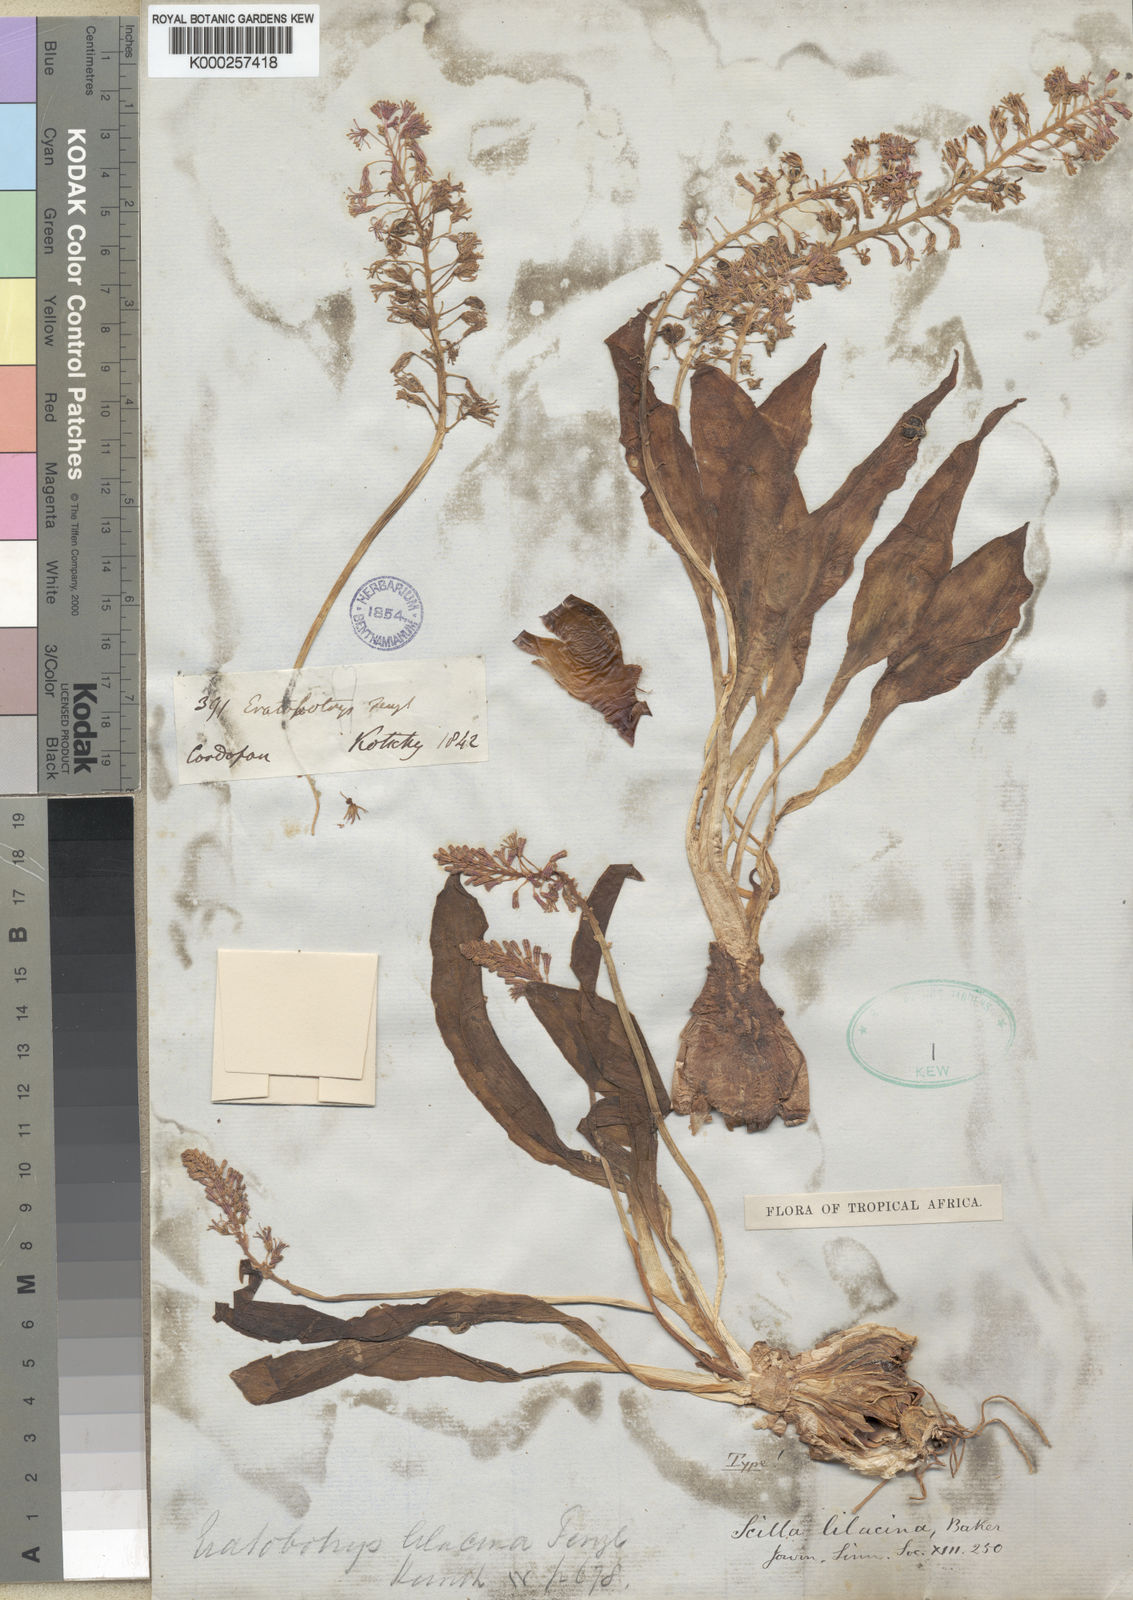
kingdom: Plantae
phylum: Tracheophyta
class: Liliopsida
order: Asparagales
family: Asparagaceae
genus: Ledebouria
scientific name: Ledebouria lilacina
